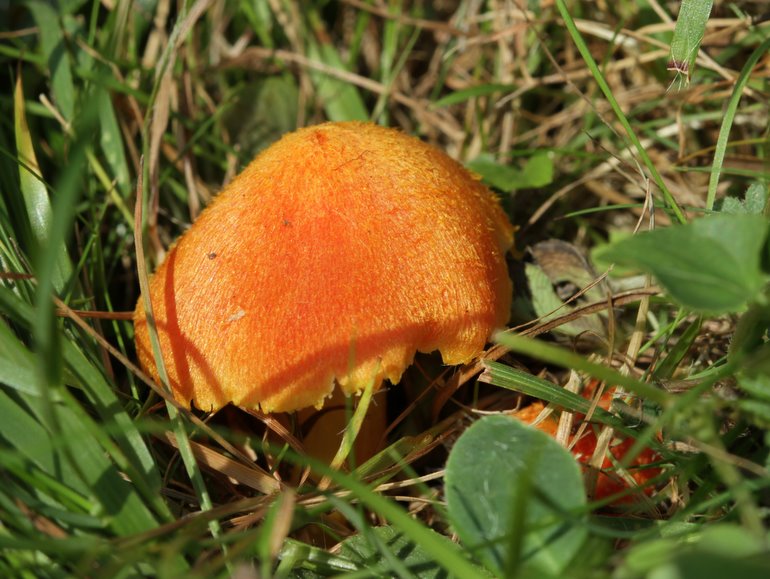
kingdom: Fungi
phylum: Basidiomycota
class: Agaricomycetes
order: Agaricales
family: Hygrophoraceae
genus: Hygrocybe
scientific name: Hygrocybe intermedia
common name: trævlet vokshat
